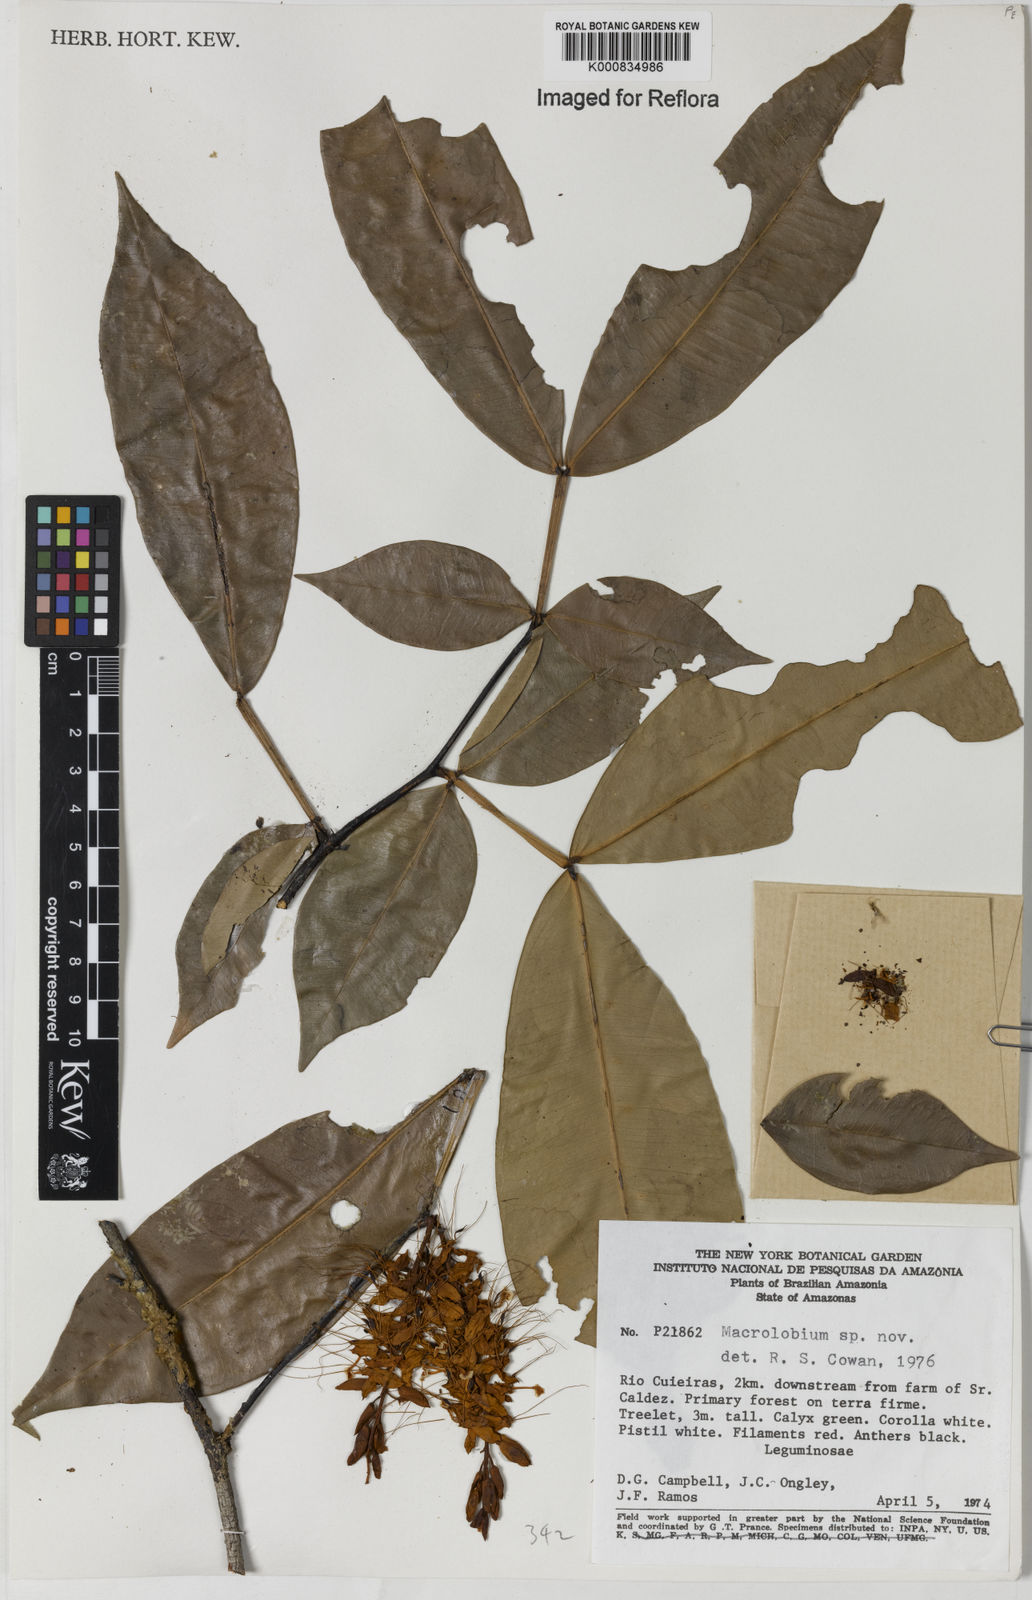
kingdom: Plantae
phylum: Tracheophyta
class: Magnoliopsida
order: Fabales
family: Fabaceae
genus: Macrolobium
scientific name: Macrolobium
